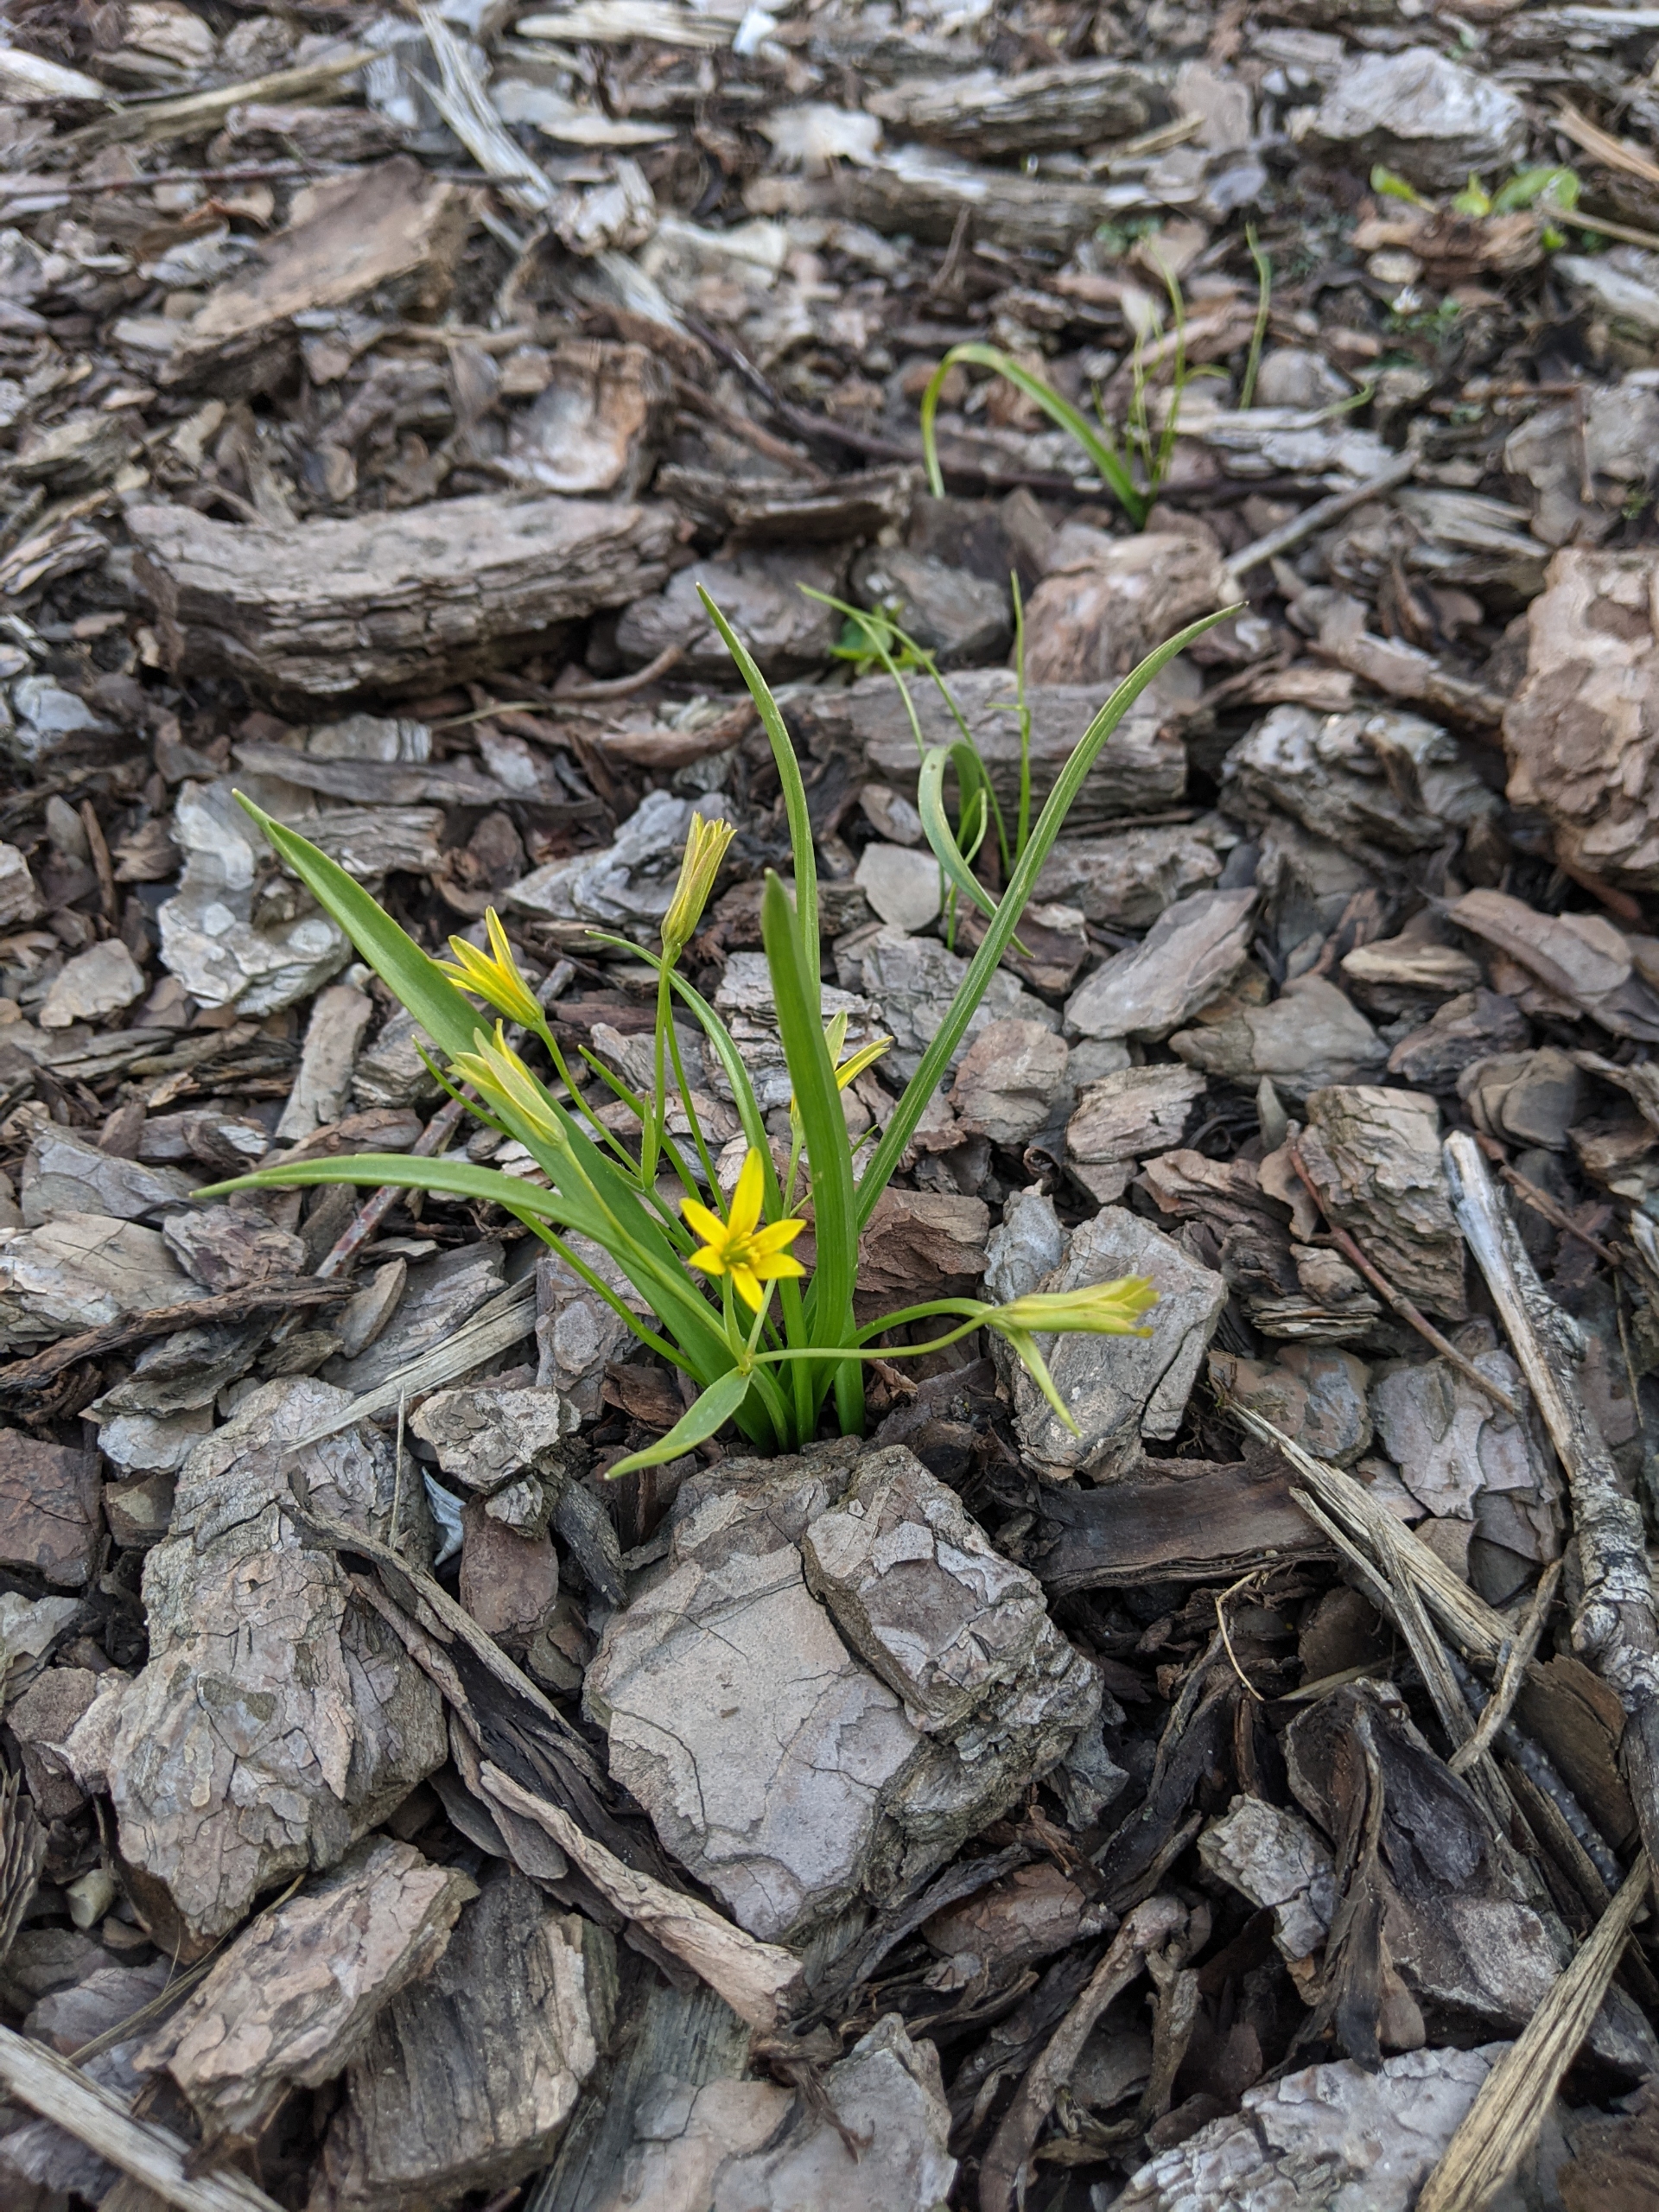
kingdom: Plantae
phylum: Tracheophyta
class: Liliopsida
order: Liliales
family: Liliaceae
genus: Gagea
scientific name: Gagea lutea
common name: Almindelig guldstjerne
